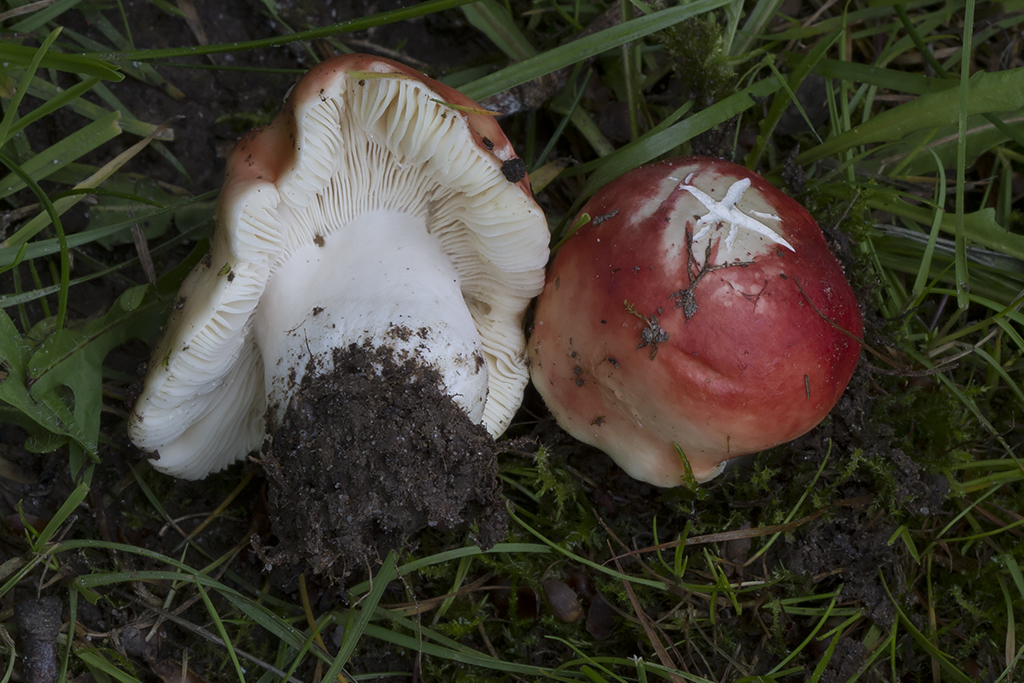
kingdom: Fungi
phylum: Basidiomycota
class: Agaricomycetes
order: Russulales
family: Russulaceae
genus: Russula
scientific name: Russula pseudointegra
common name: cinnoberrød skørhat
